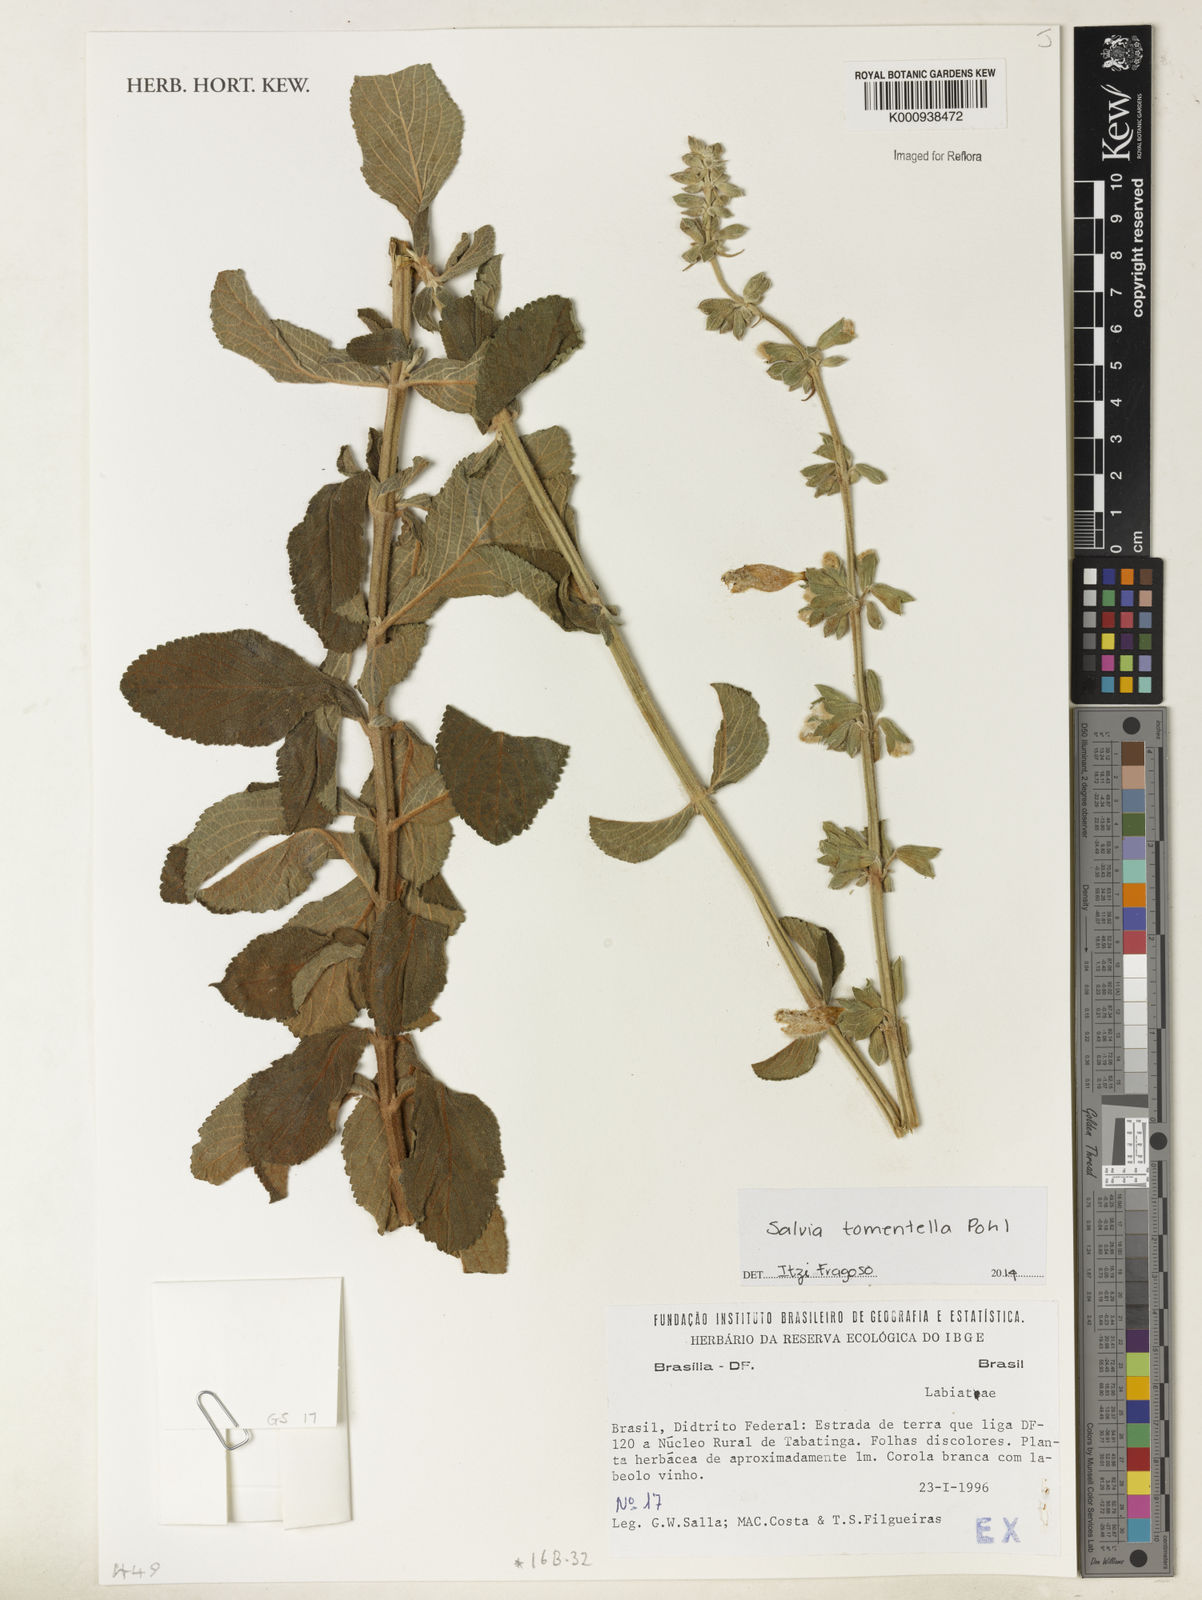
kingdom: Plantae
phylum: Tracheophyta
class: Magnoliopsida
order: Lamiales
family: Lamiaceae
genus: Salvia
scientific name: Salvia tomentella
